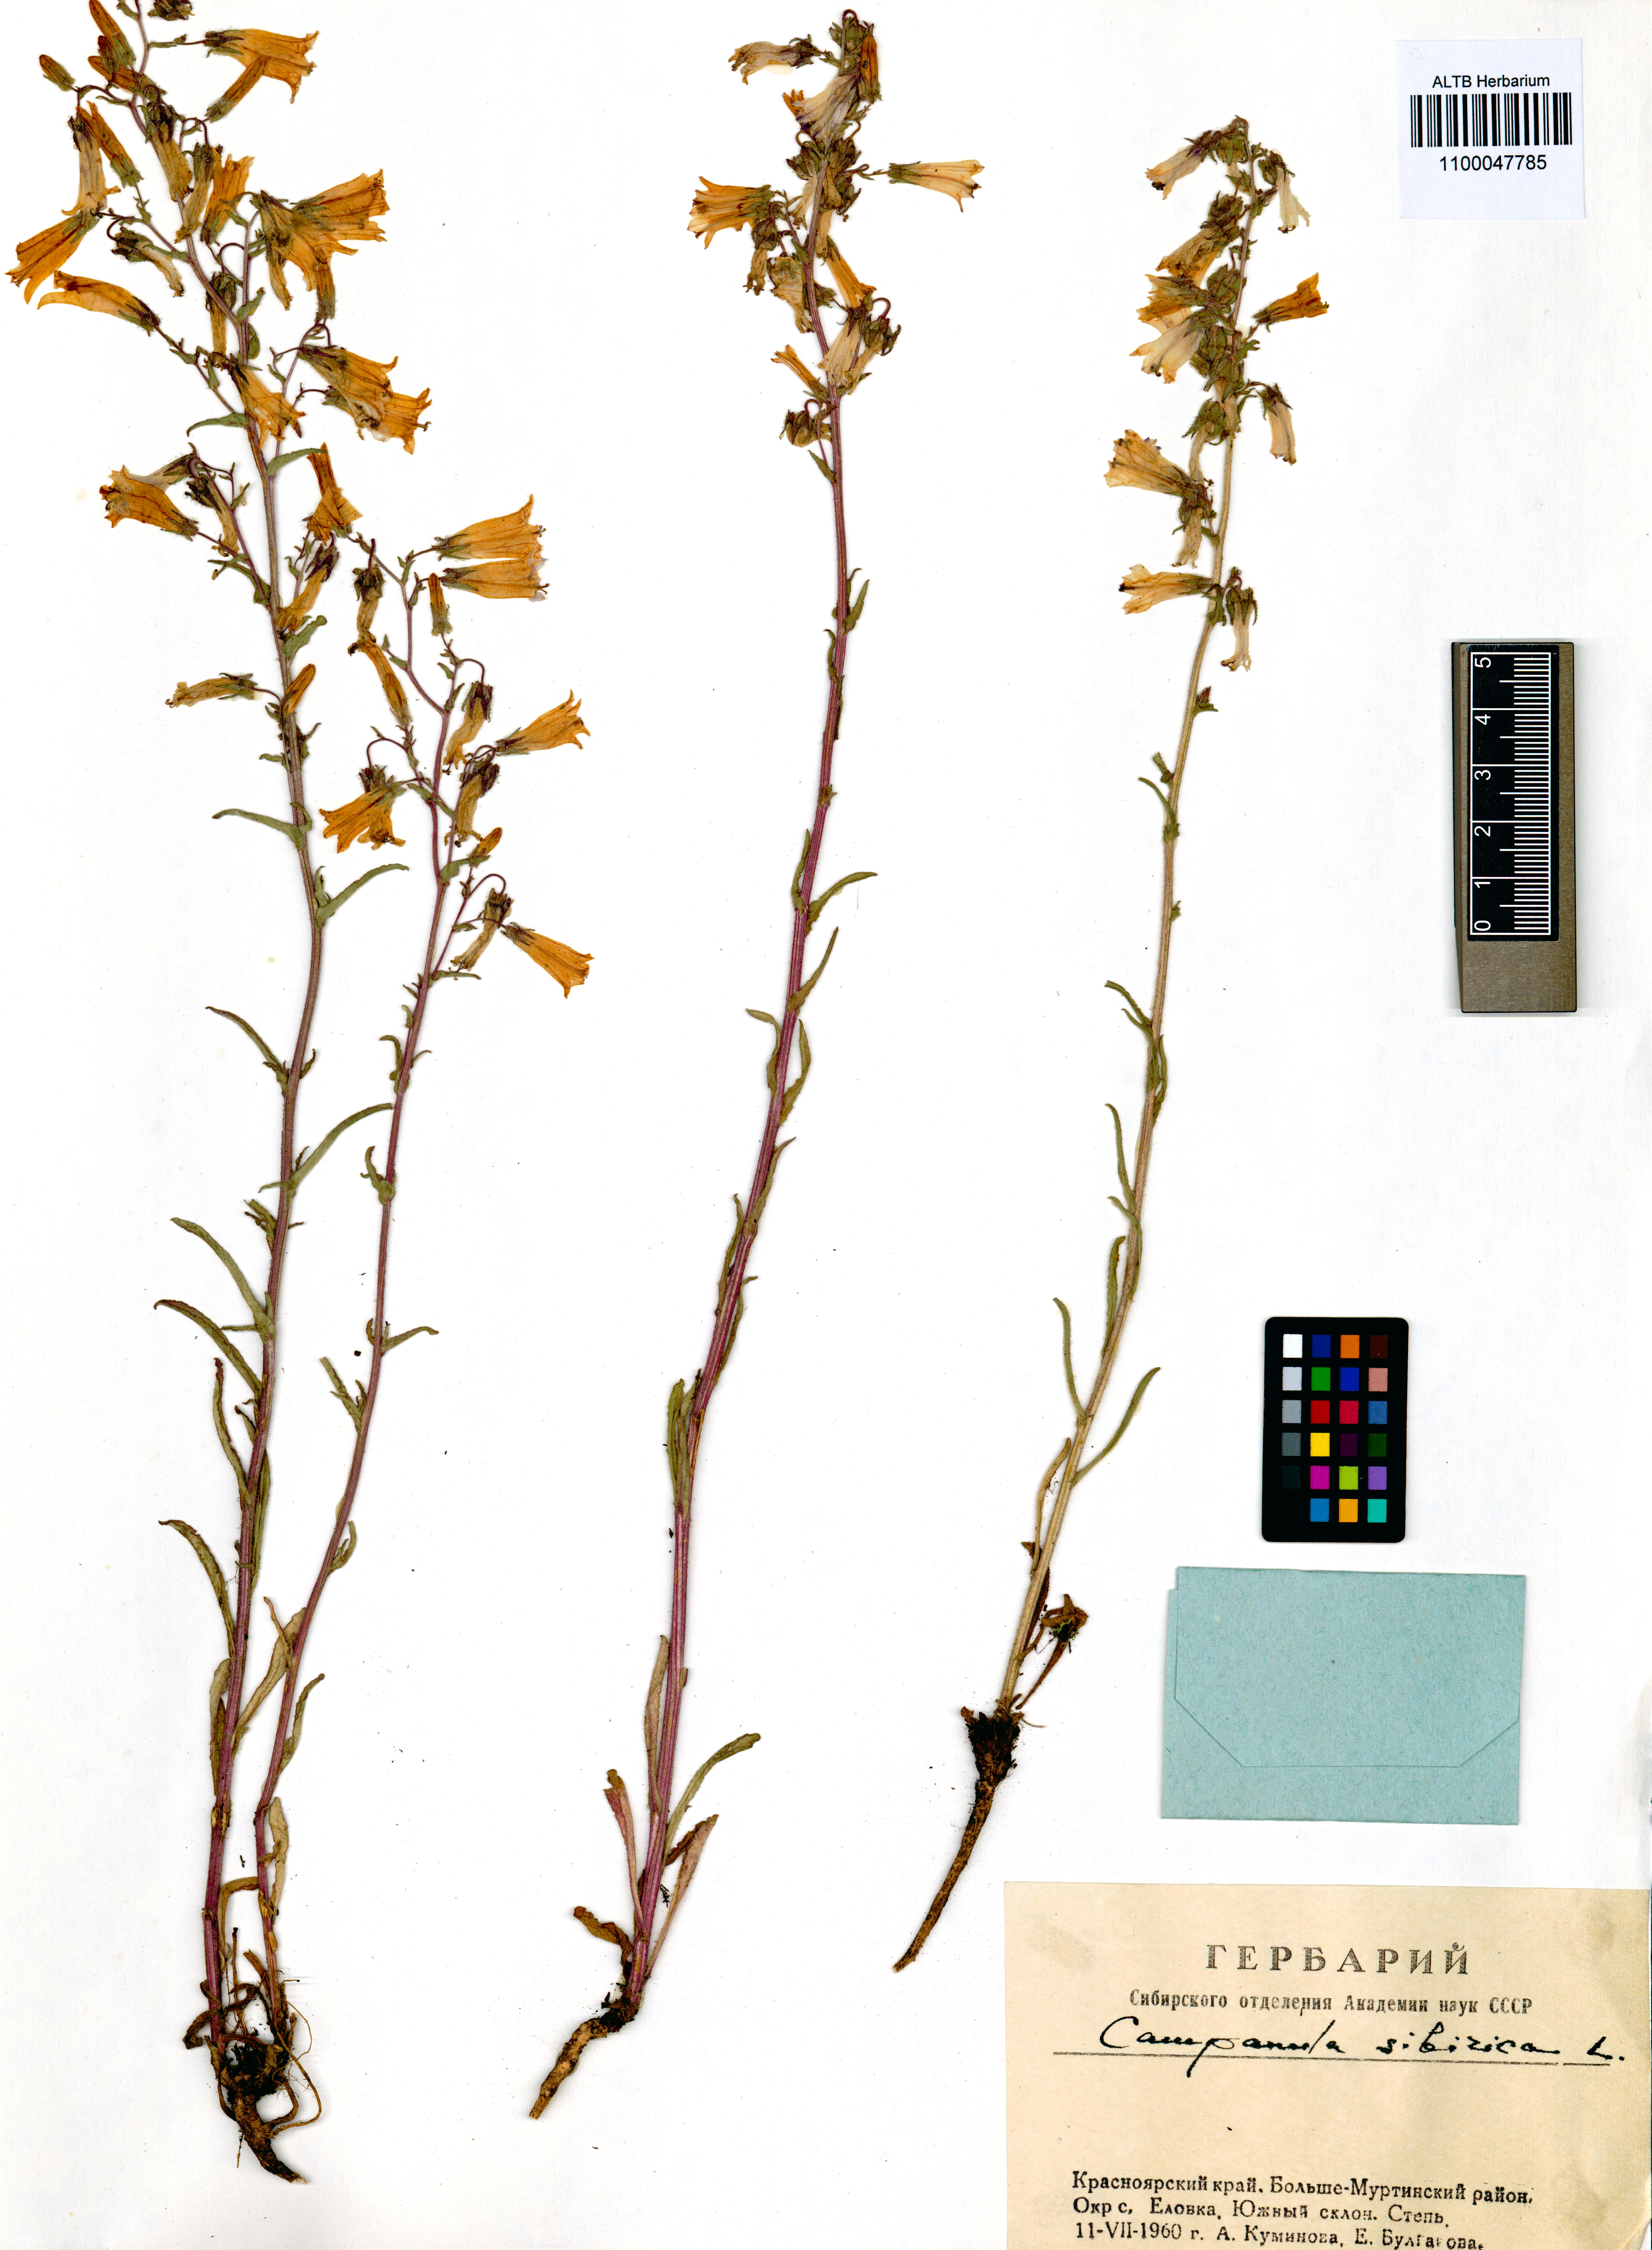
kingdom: Plantae
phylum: Tracheophyta
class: Magnoliopsida
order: Asterales
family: Campanulaceae
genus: Campanula
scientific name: Campanula sibirica
